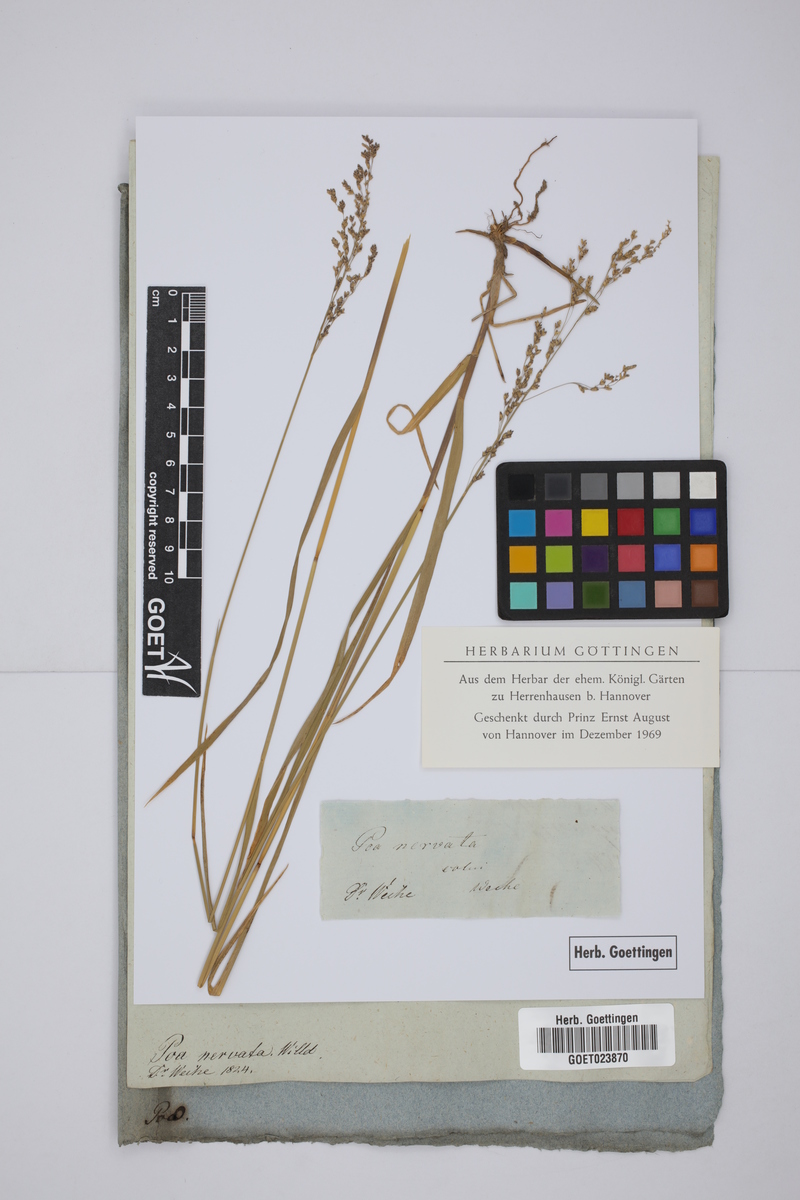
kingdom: Plantae
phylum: Tracheophyta
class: Liliopsida
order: Poales
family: Poaceae
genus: Glyceria
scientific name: Glyceria striata
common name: Fowl manna grass
